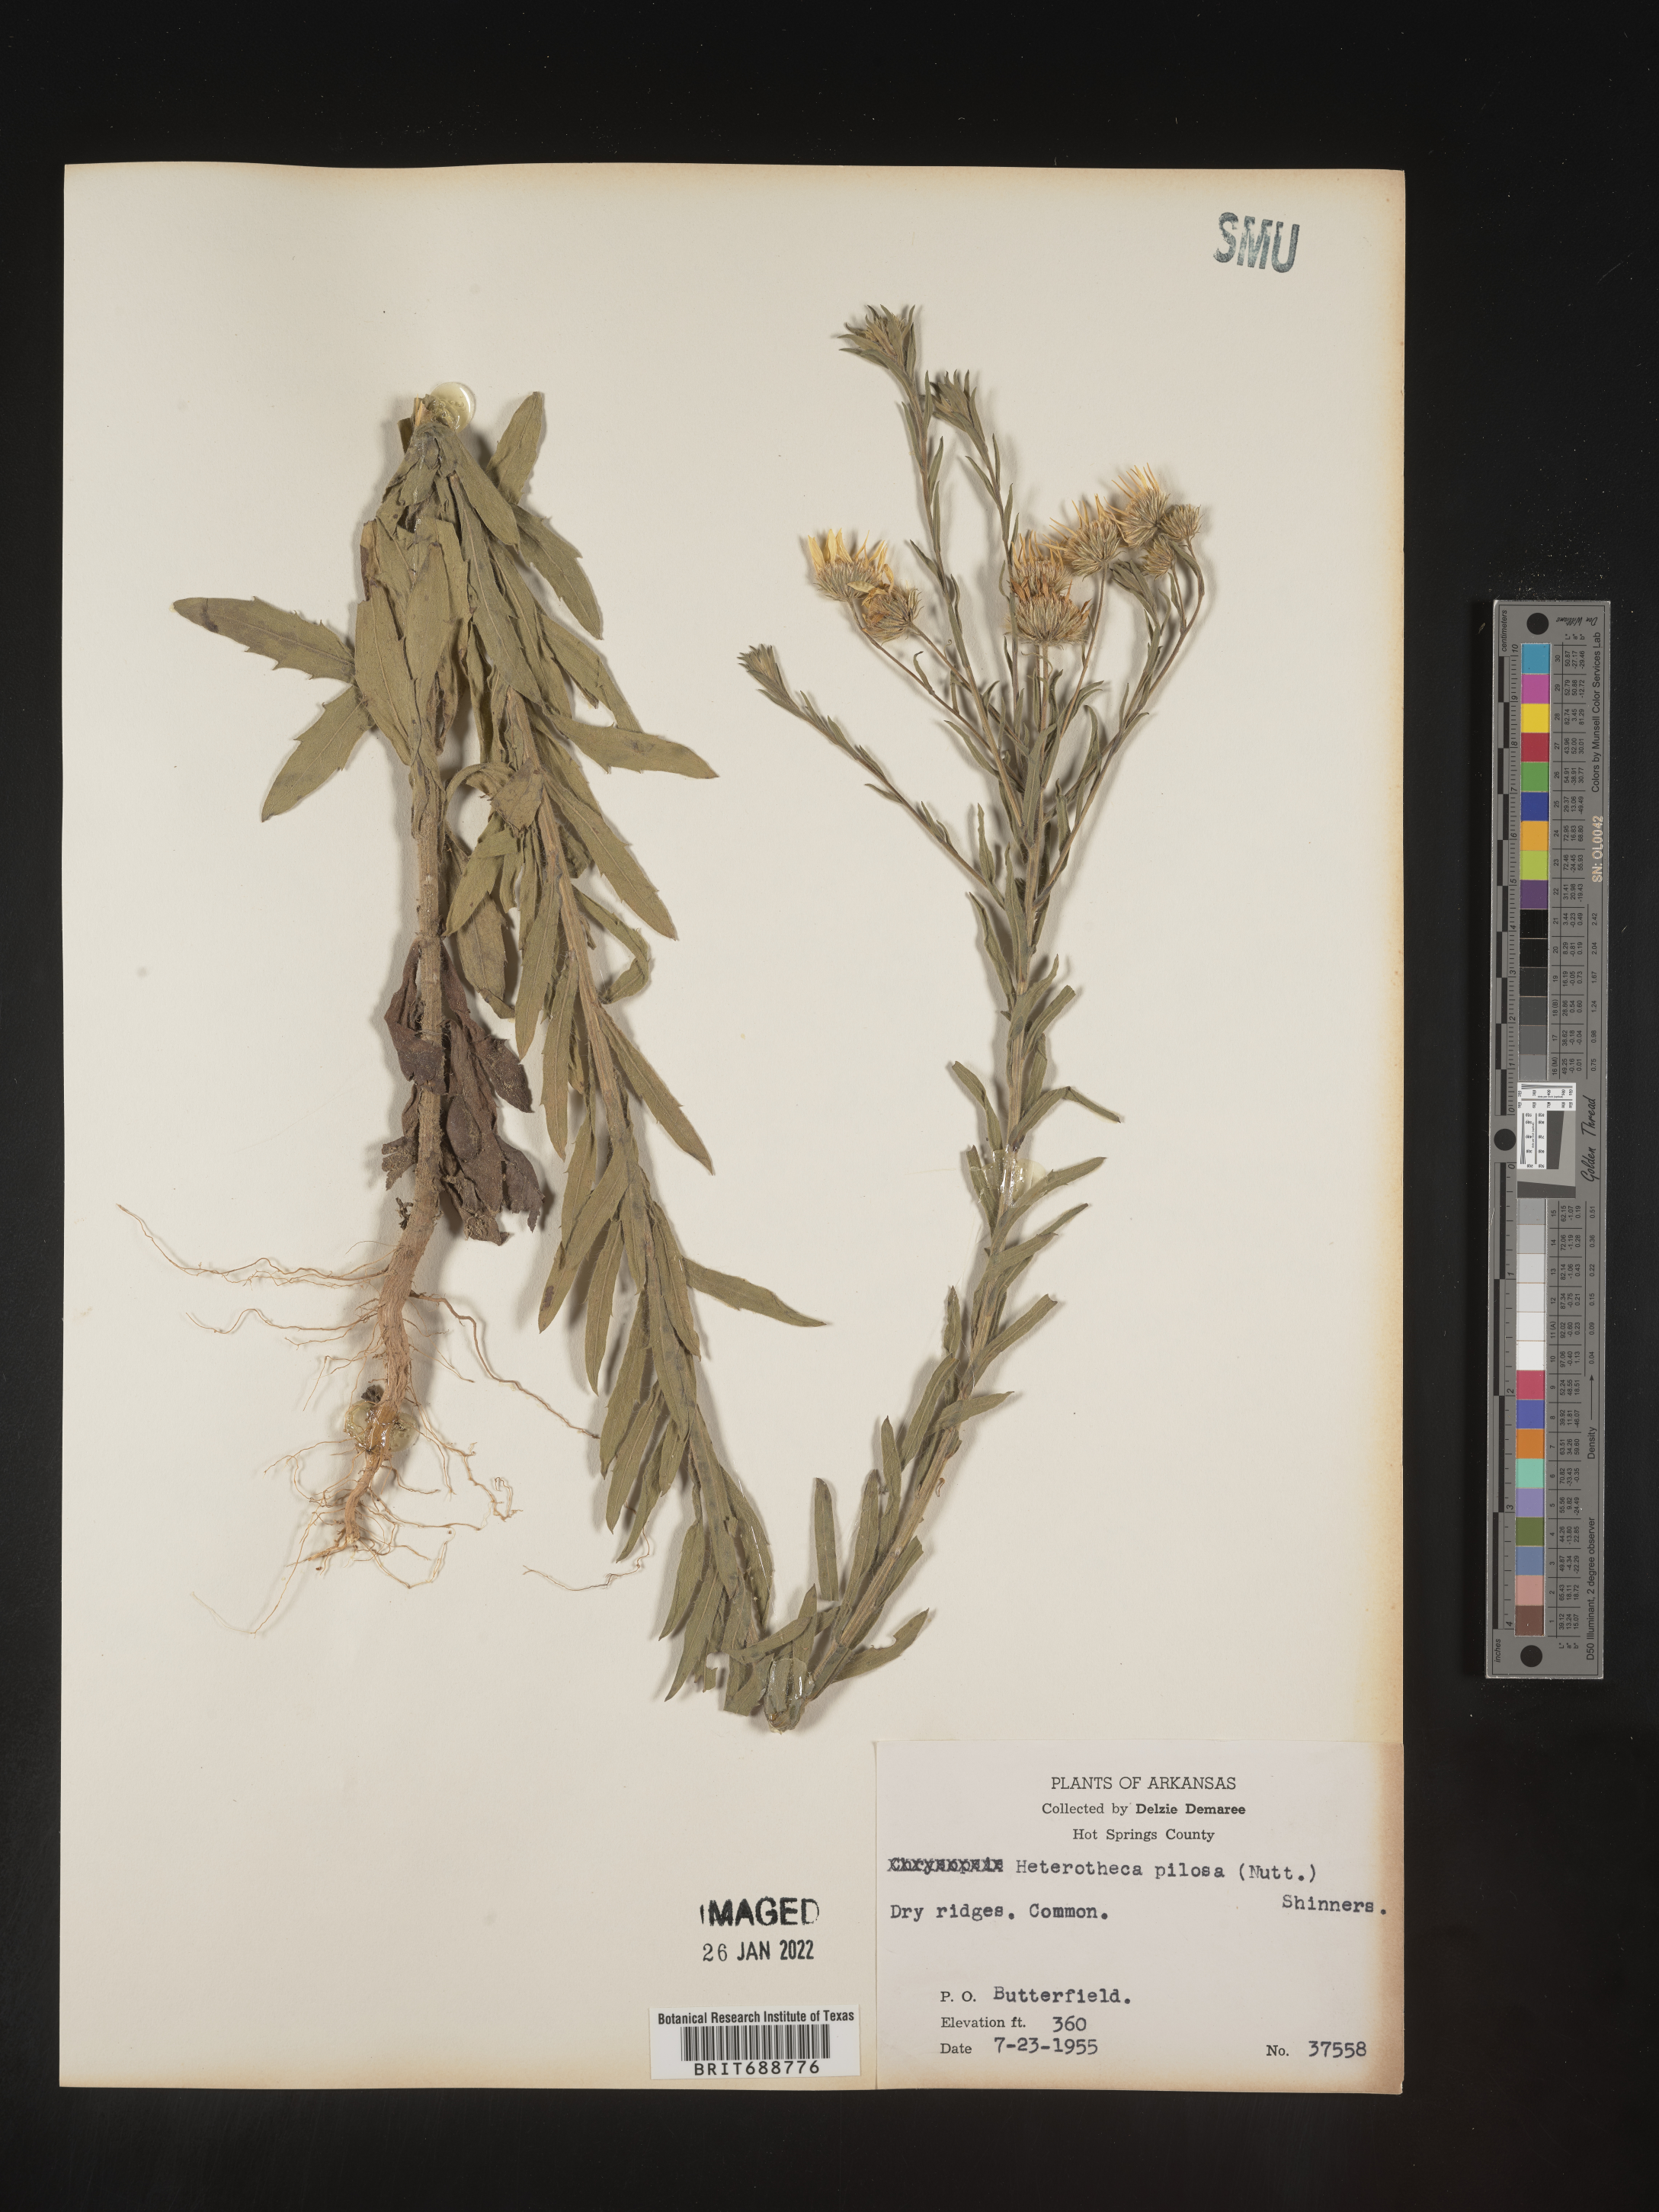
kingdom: Plantae
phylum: Tracheophyta
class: Magnoliopsida
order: Asterales
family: Asteraceae
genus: Bradburia
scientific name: Bradburia pilosa
